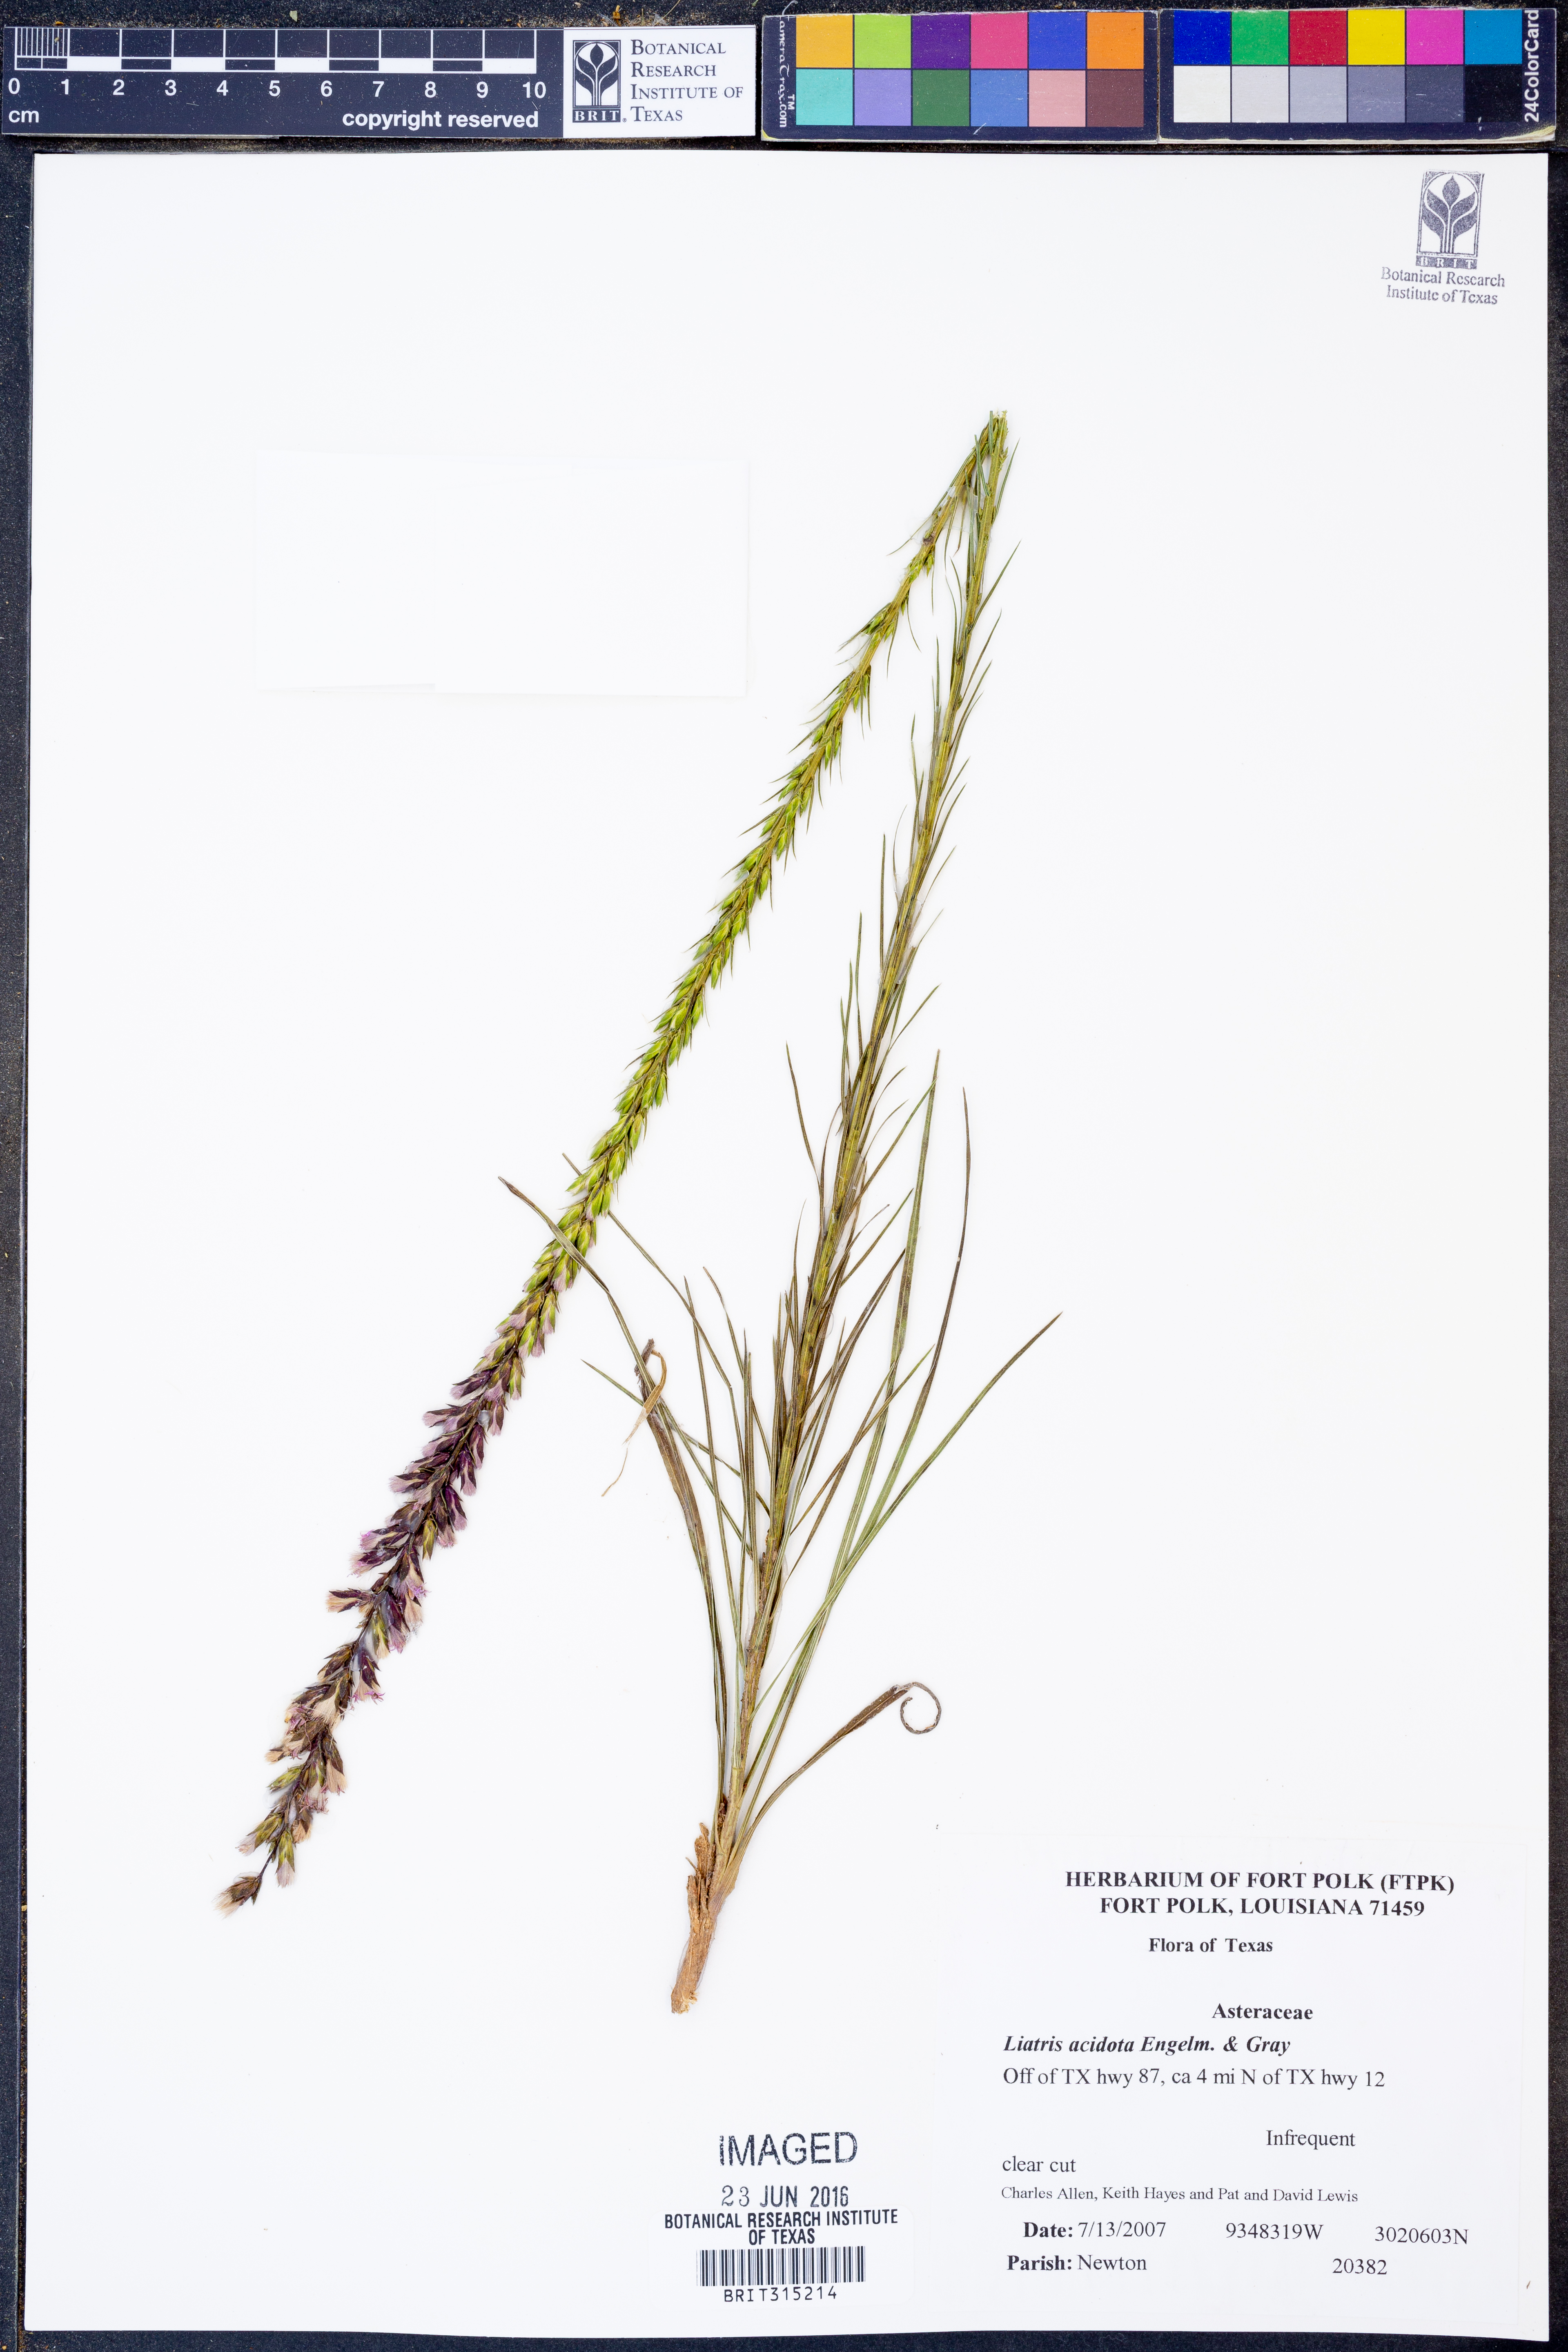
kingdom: Plantae
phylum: Tracheophyta
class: Magnoliopsida
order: Asterales
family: Asteraceae
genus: Liatris
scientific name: Liatris acidota
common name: Gulf coast gayfeather
